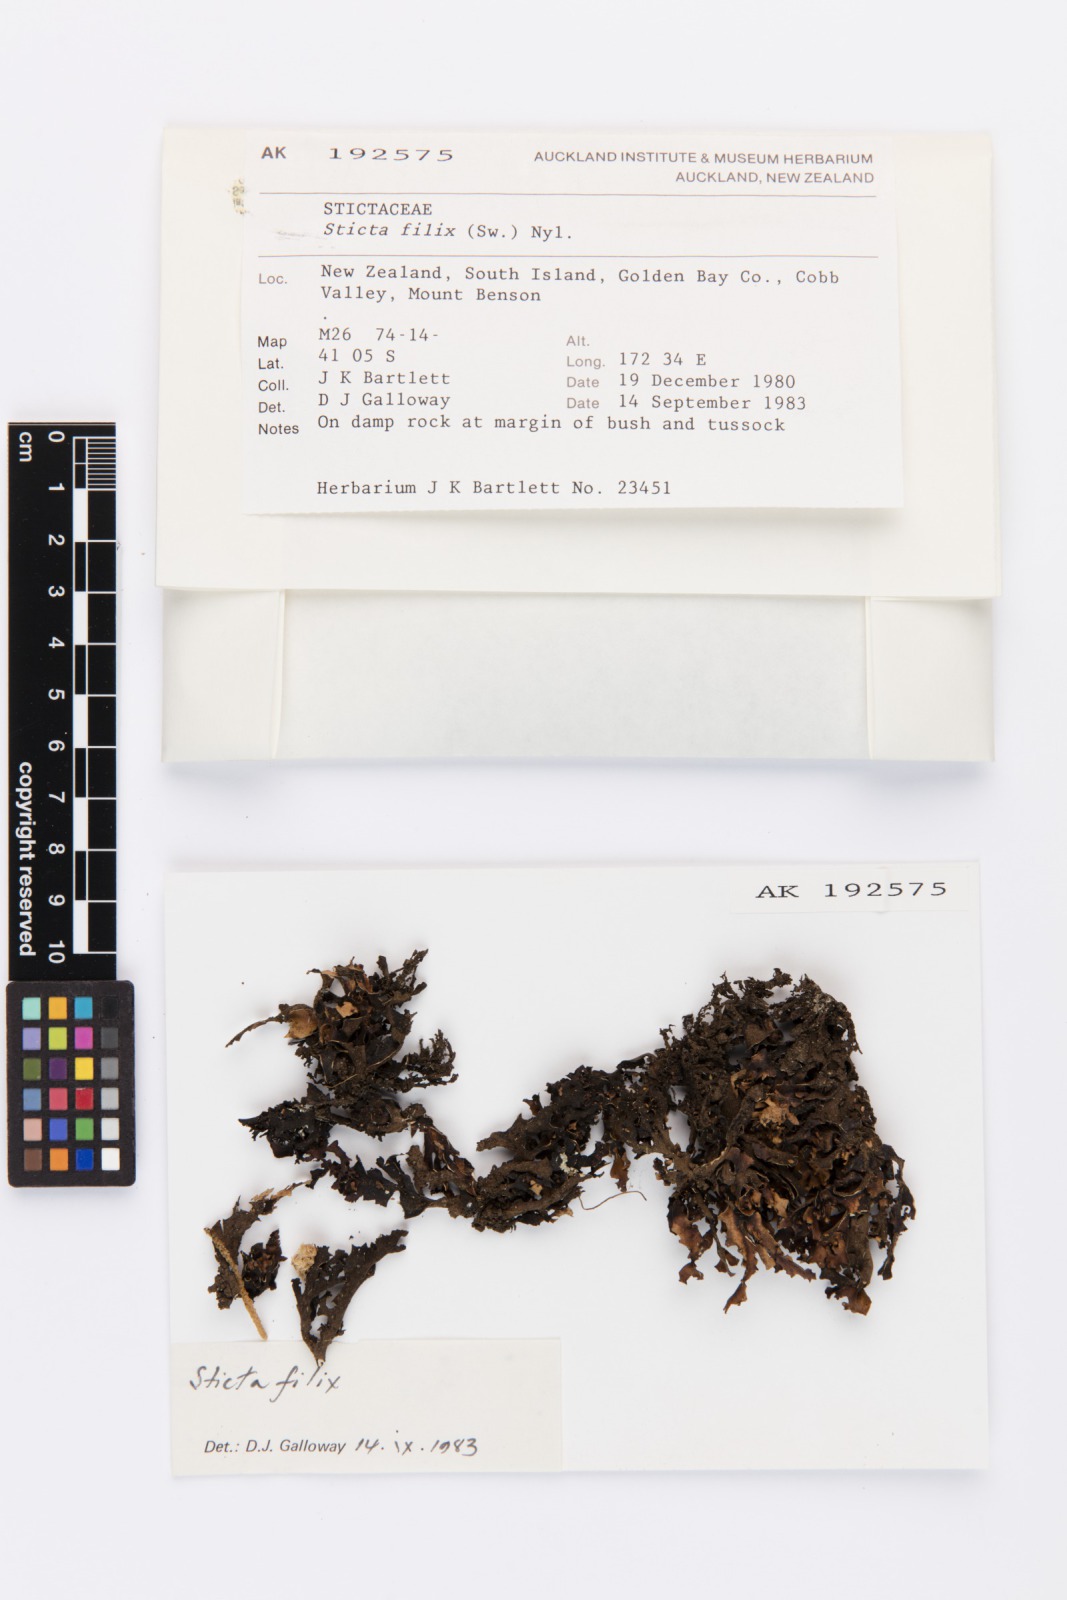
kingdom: Fungi
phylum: Ascomycota
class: Lecanoromycetes
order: Peltigerales
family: Lobariaceae
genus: Sticta
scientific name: Sticta filix
